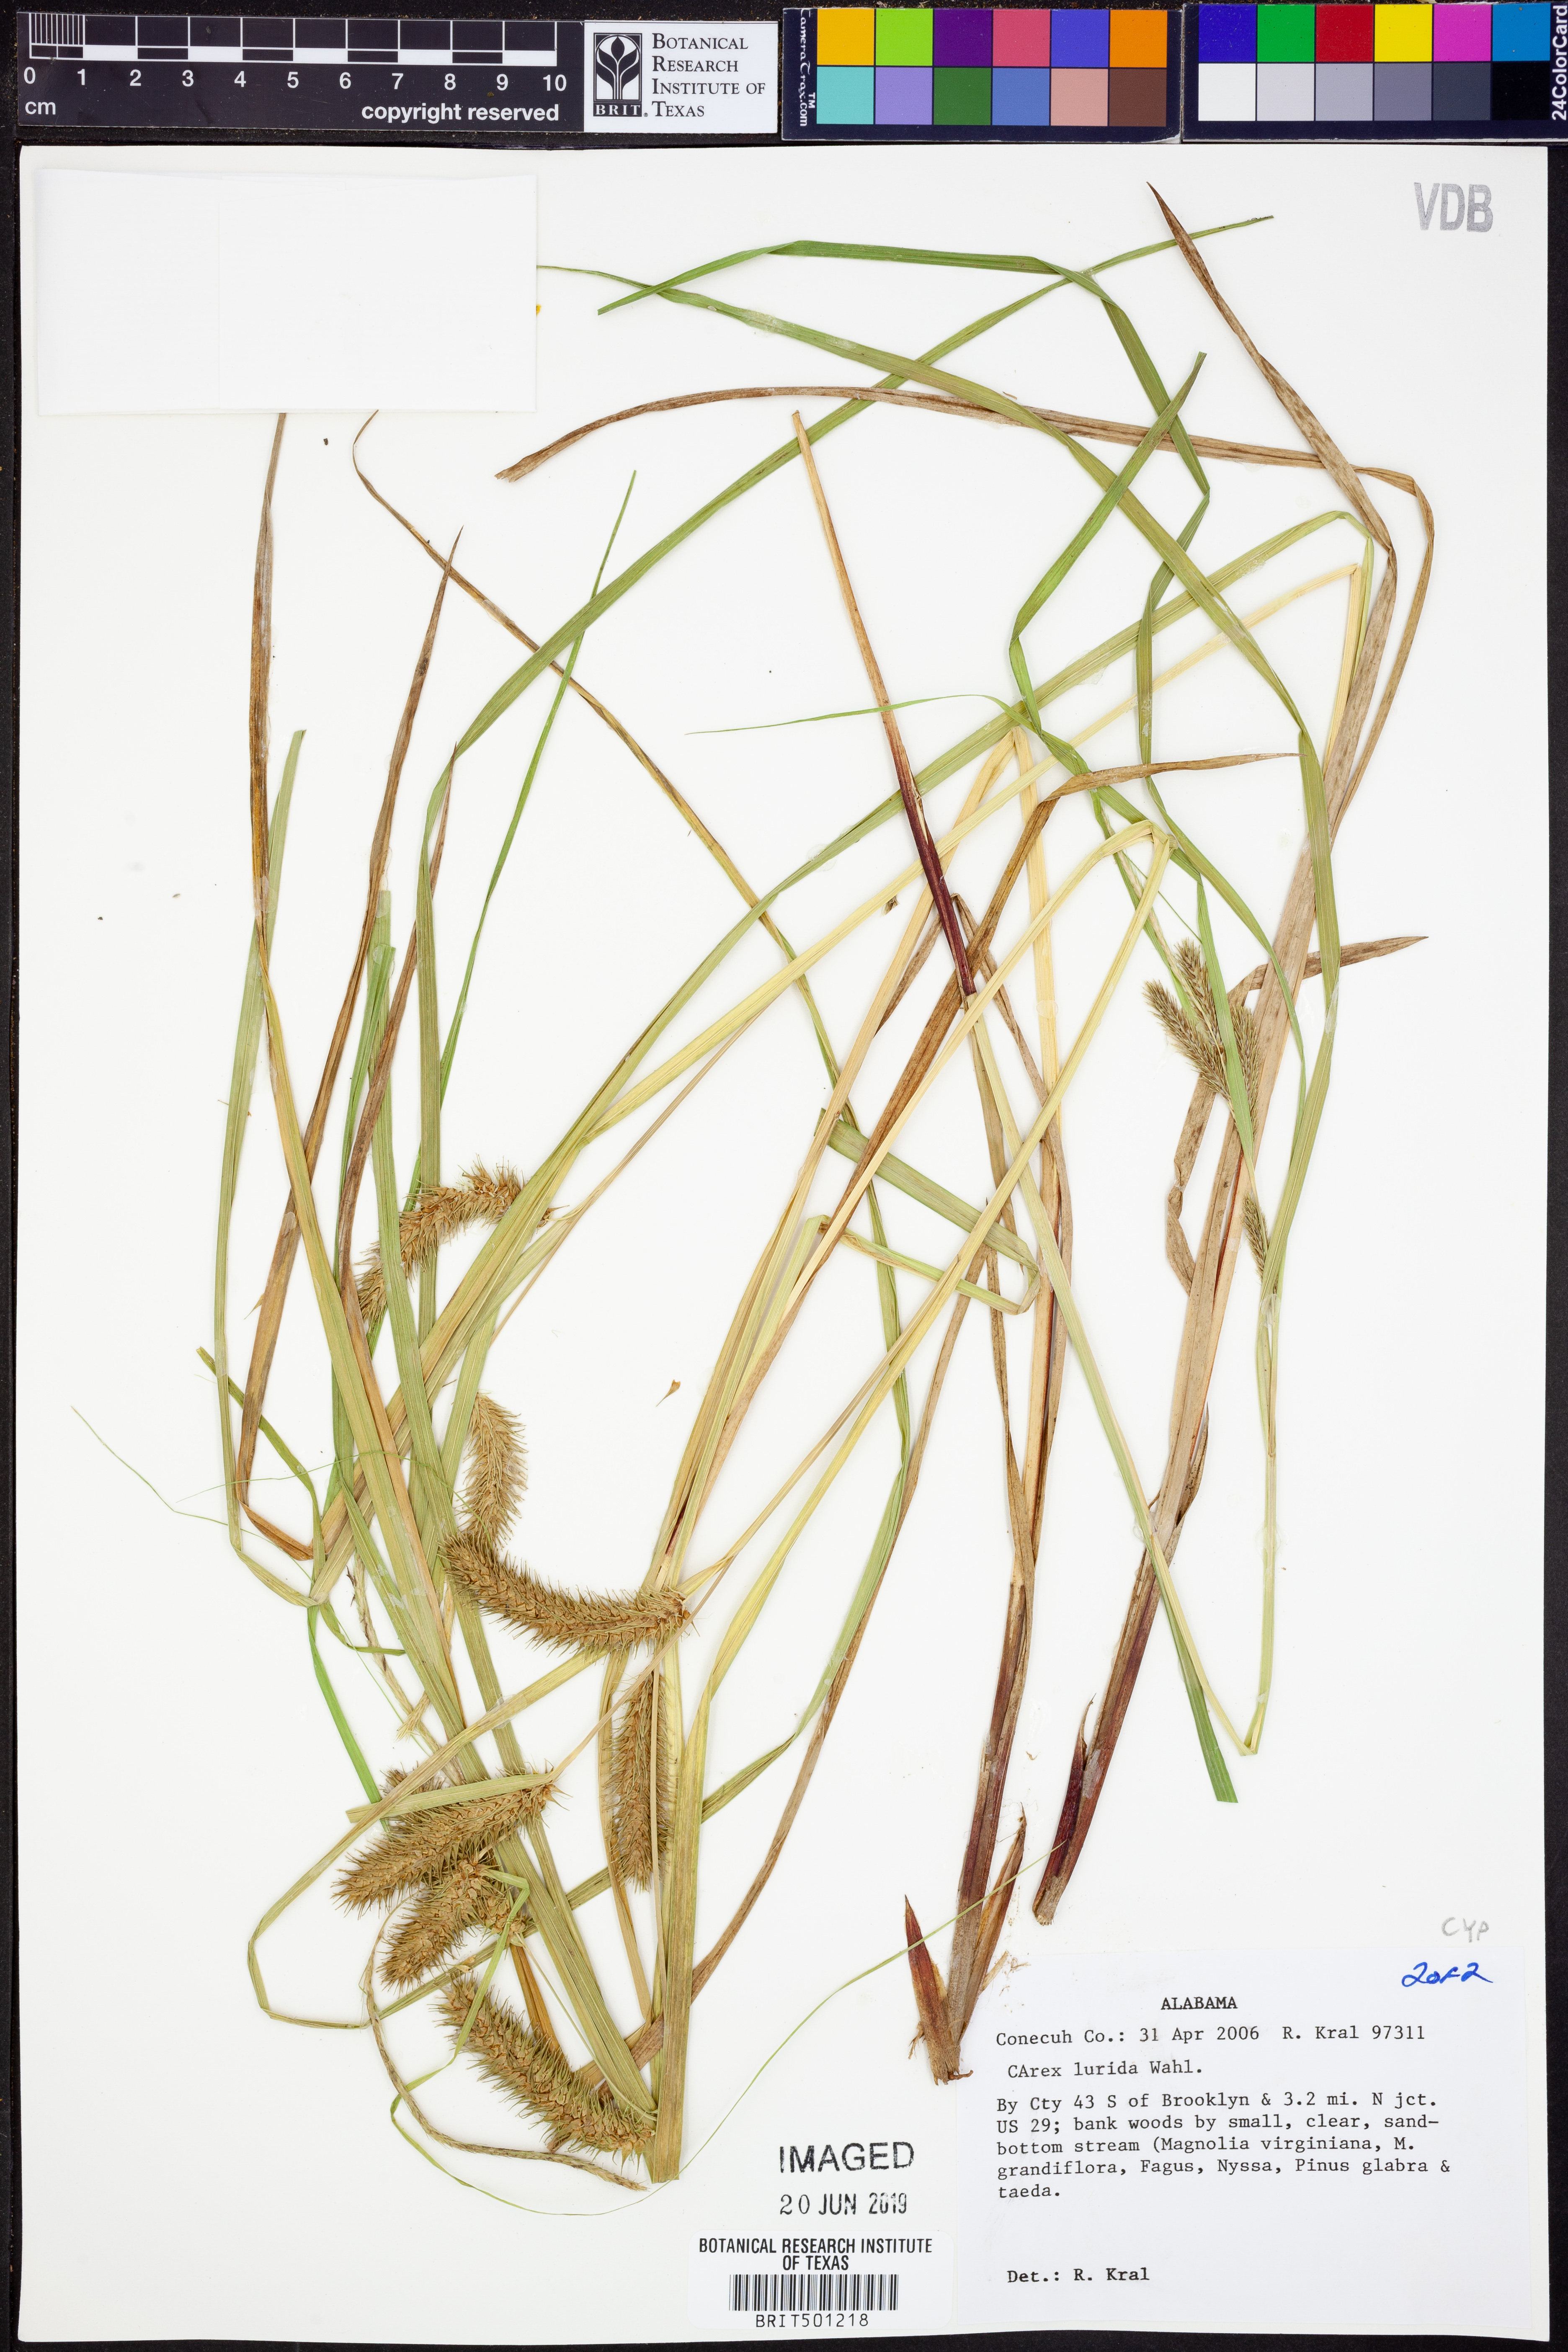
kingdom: Plantae
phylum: Tracheophyta
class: Liliopsida
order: Poales
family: Cyperaceae
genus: Carex
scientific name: Carex lurida
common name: Sallow sedge
